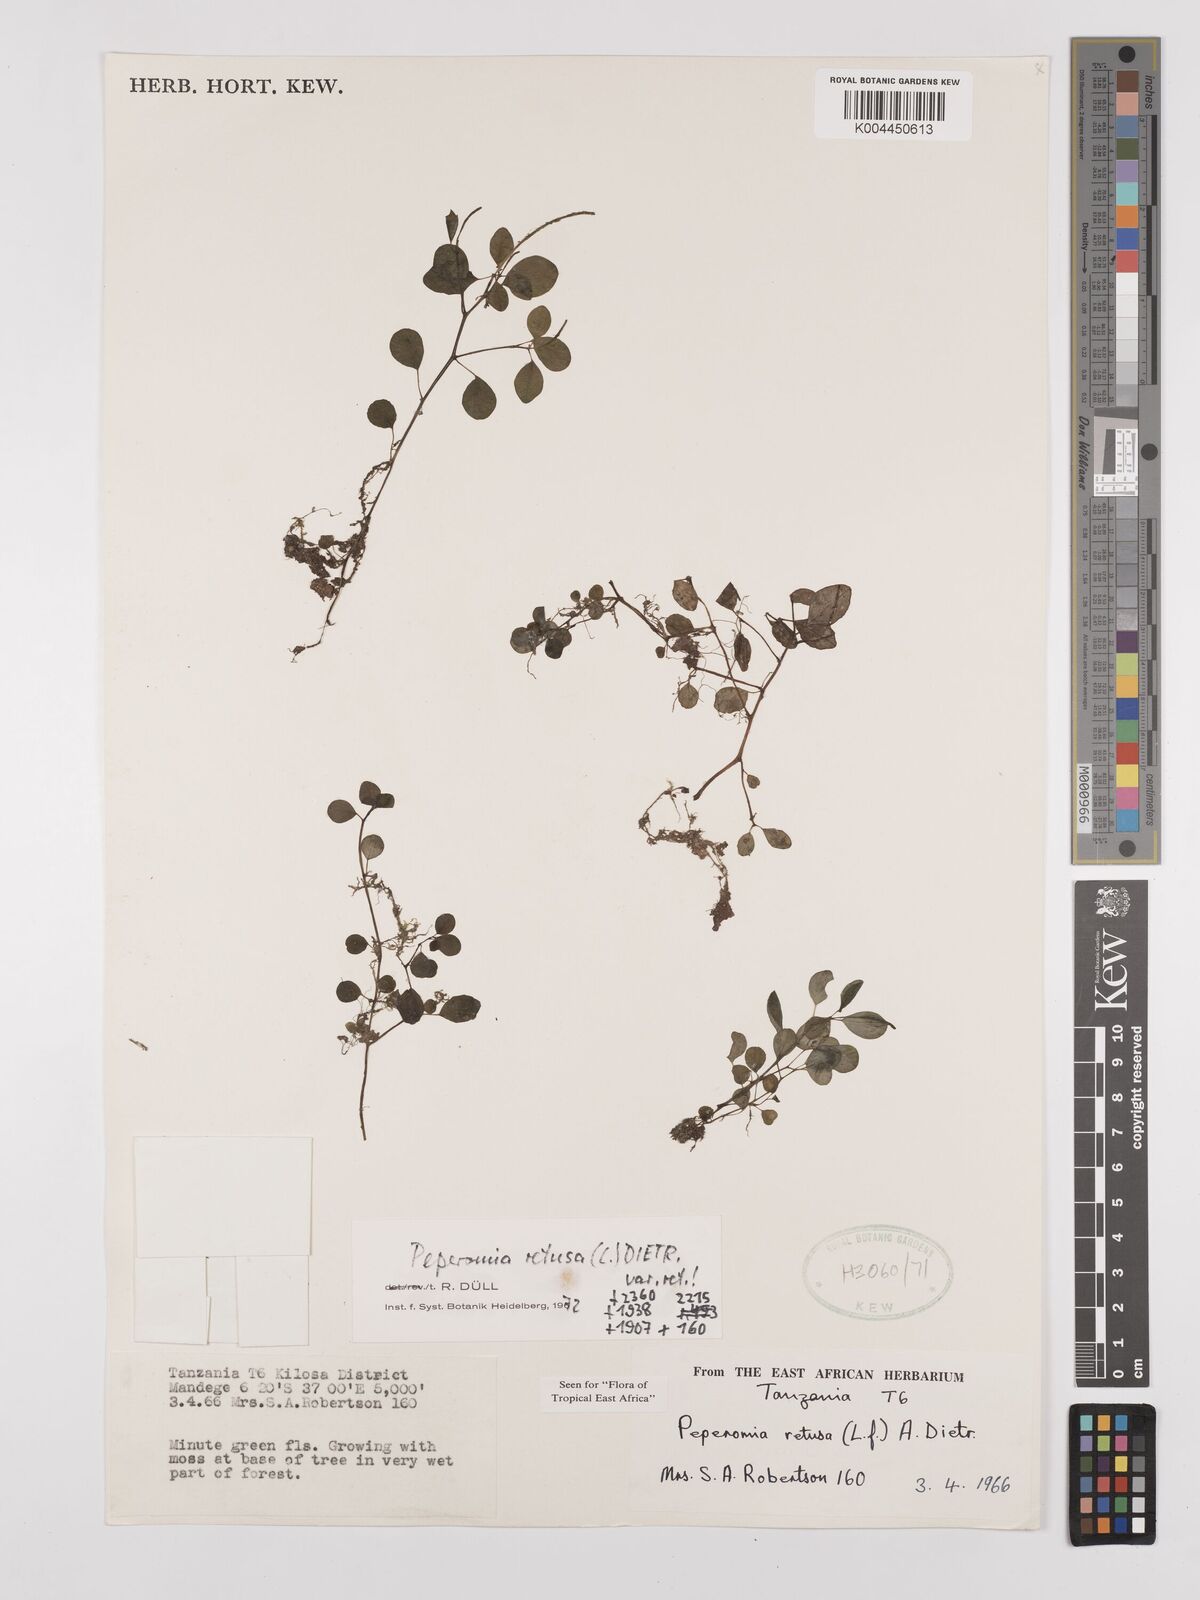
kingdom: Plantae
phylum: Tracheophyta
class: Magnoliopsida
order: Piperales
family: Piperaceae
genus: Peperomia
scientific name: Peperomia retusa
